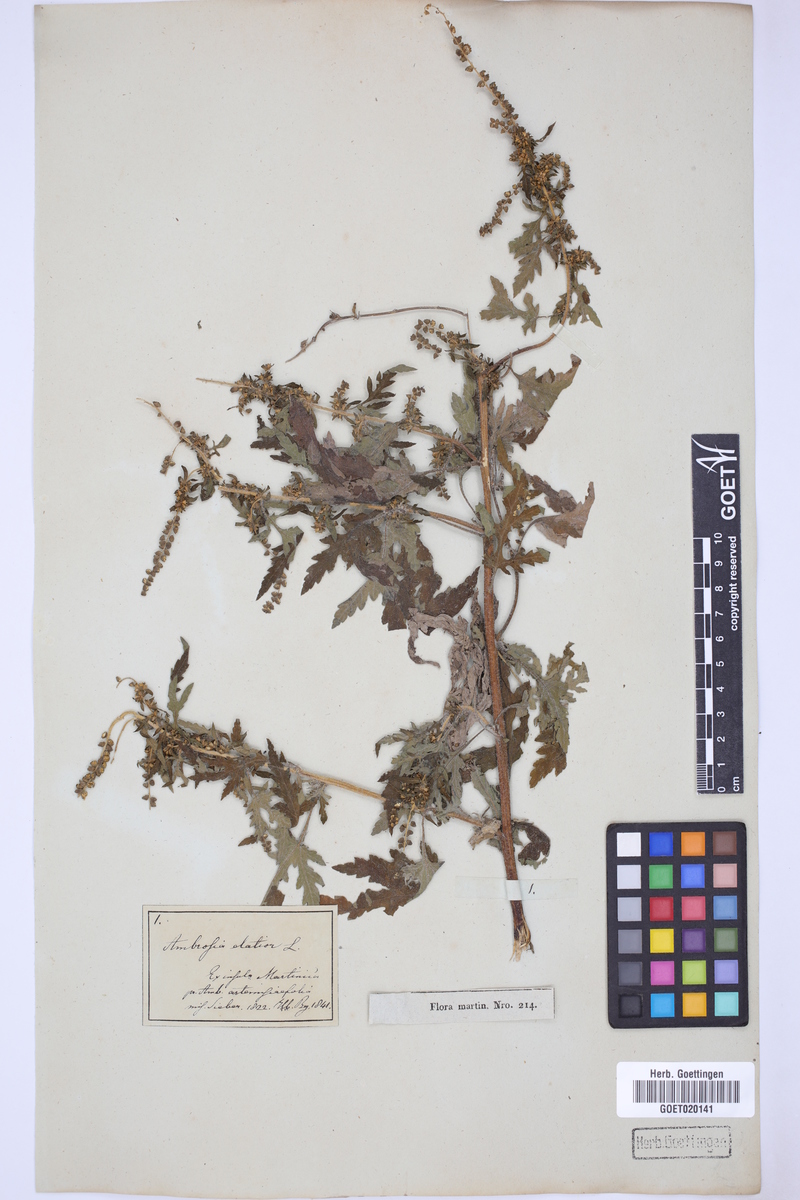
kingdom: Plantae
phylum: Tracheophyta
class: Magnoliopsida
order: Asterales
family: Asteraceae
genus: Ambrosia
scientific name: Ambrosia artemisiifolia
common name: Annual ragweed
